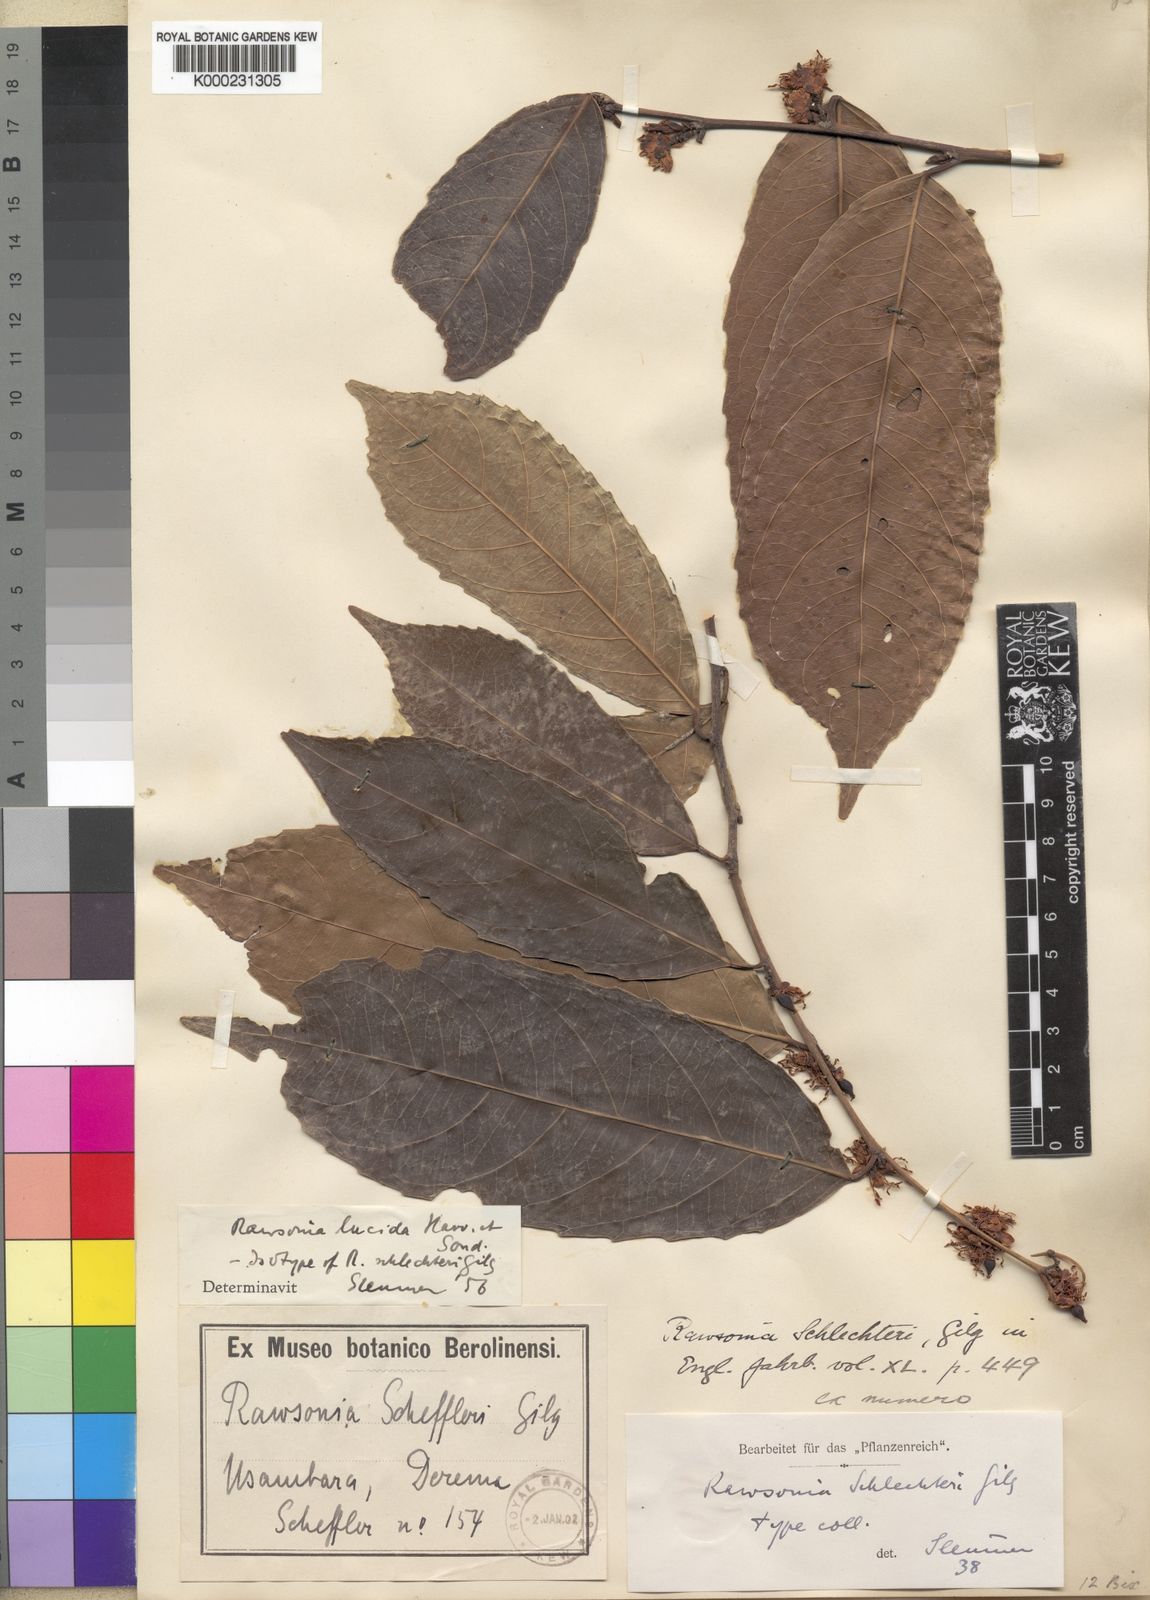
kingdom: Plantae
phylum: Tracheophyta
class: Magnoliopsida
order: Malpighiales
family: Achariaceae
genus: Rawsonia
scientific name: Rawsonia lucida
